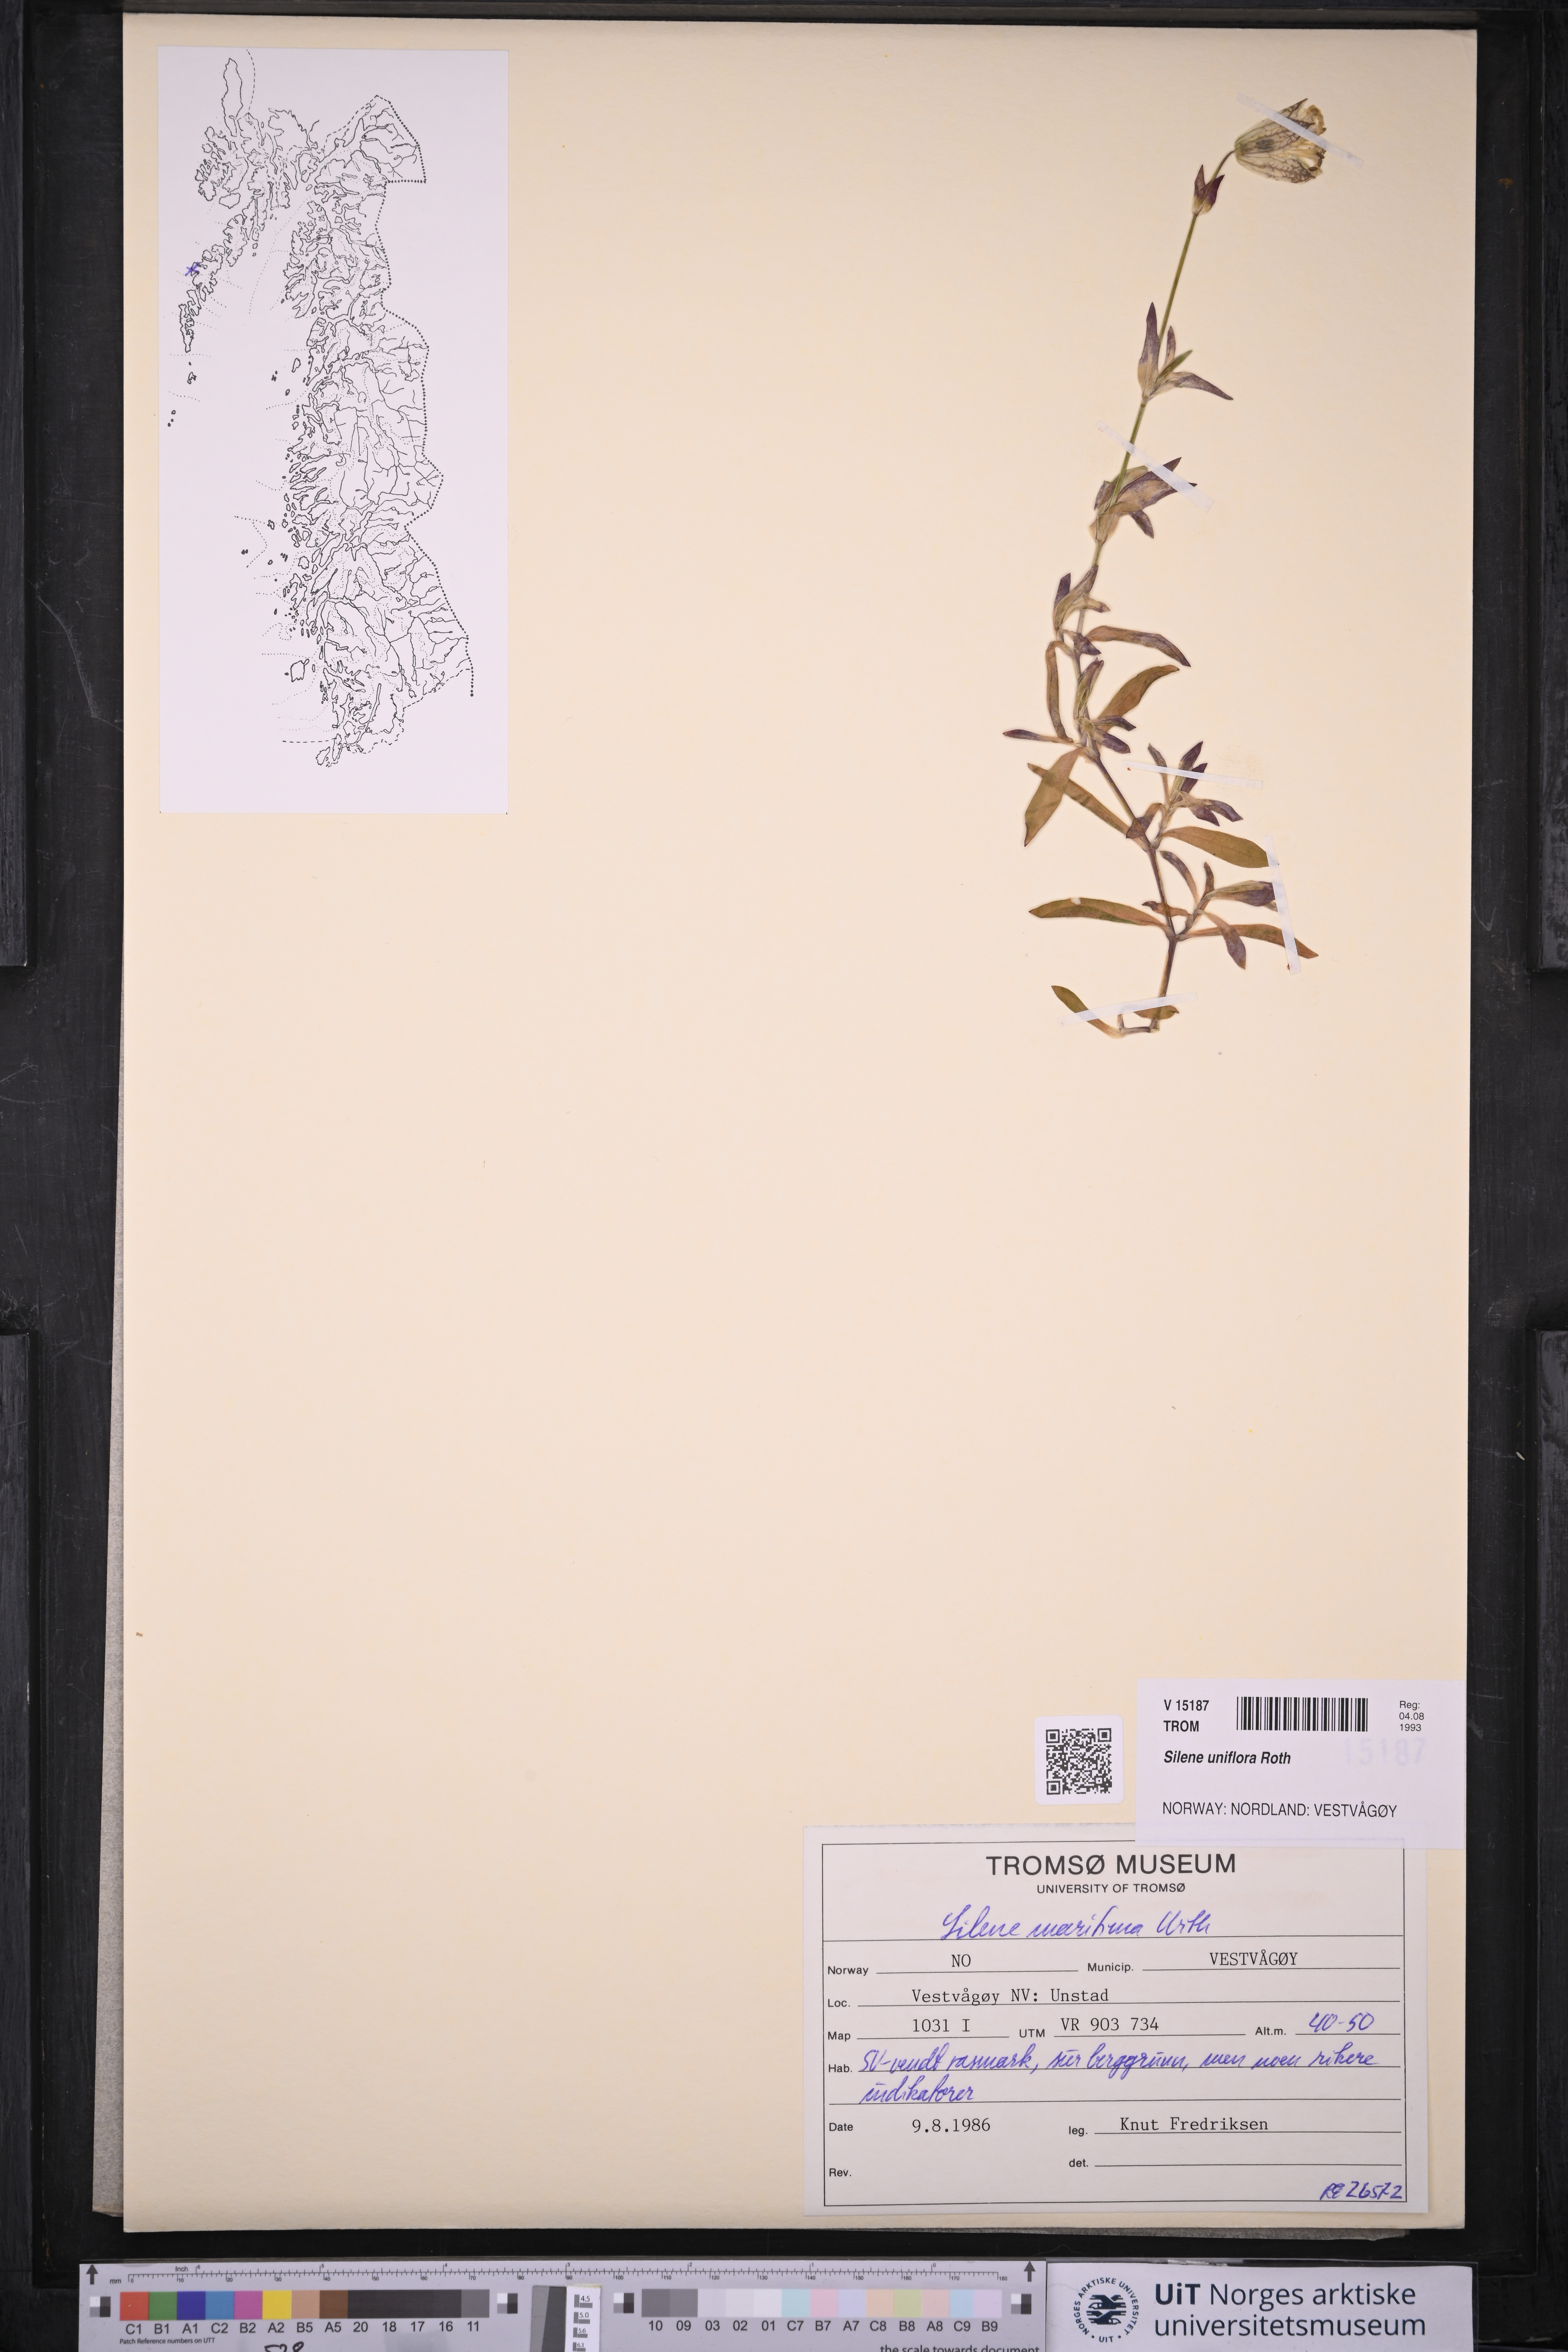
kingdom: Plantae
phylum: Tracheophyta
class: Magnoliopsida
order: Caryophyllales
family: Caryophyllaceae
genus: Silene
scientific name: Silene uniflora
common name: Sea campion
